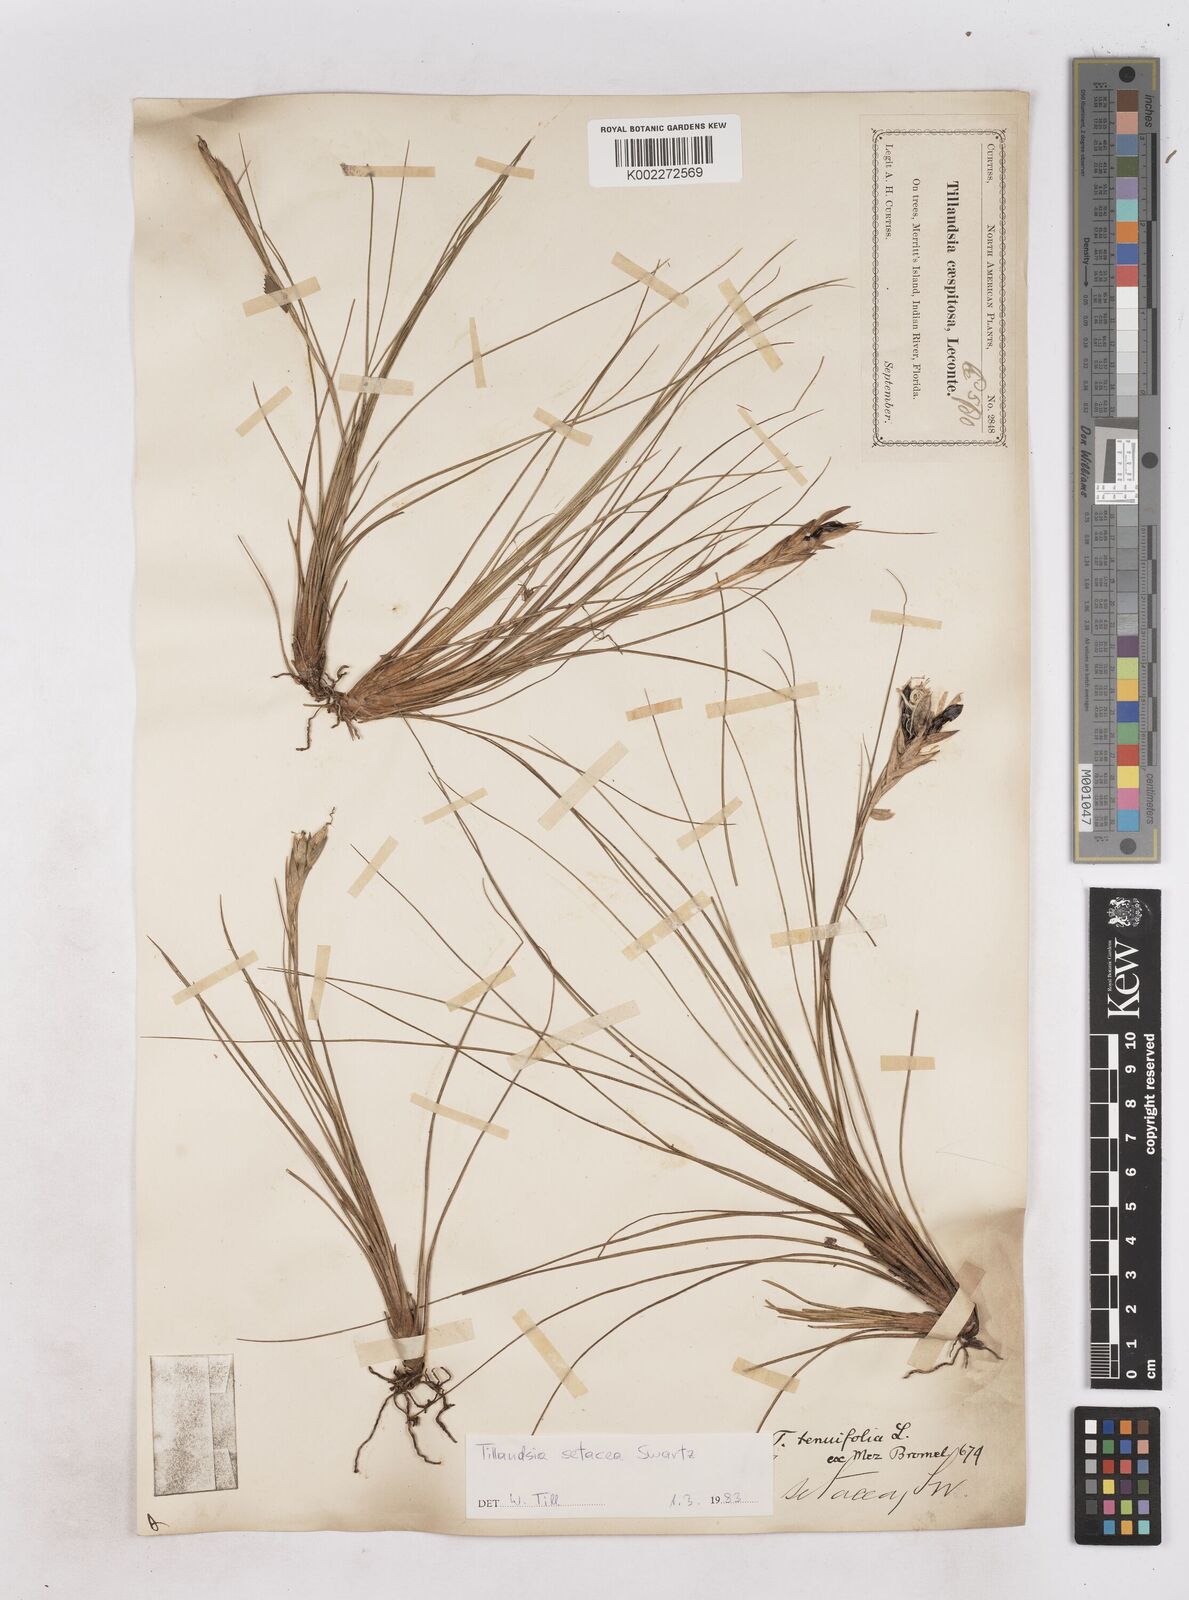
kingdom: Plantae
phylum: Tracheophyta
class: Liliopsida
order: Poales
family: Bromeliaceae
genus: Tillandsia
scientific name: Tillandsia
